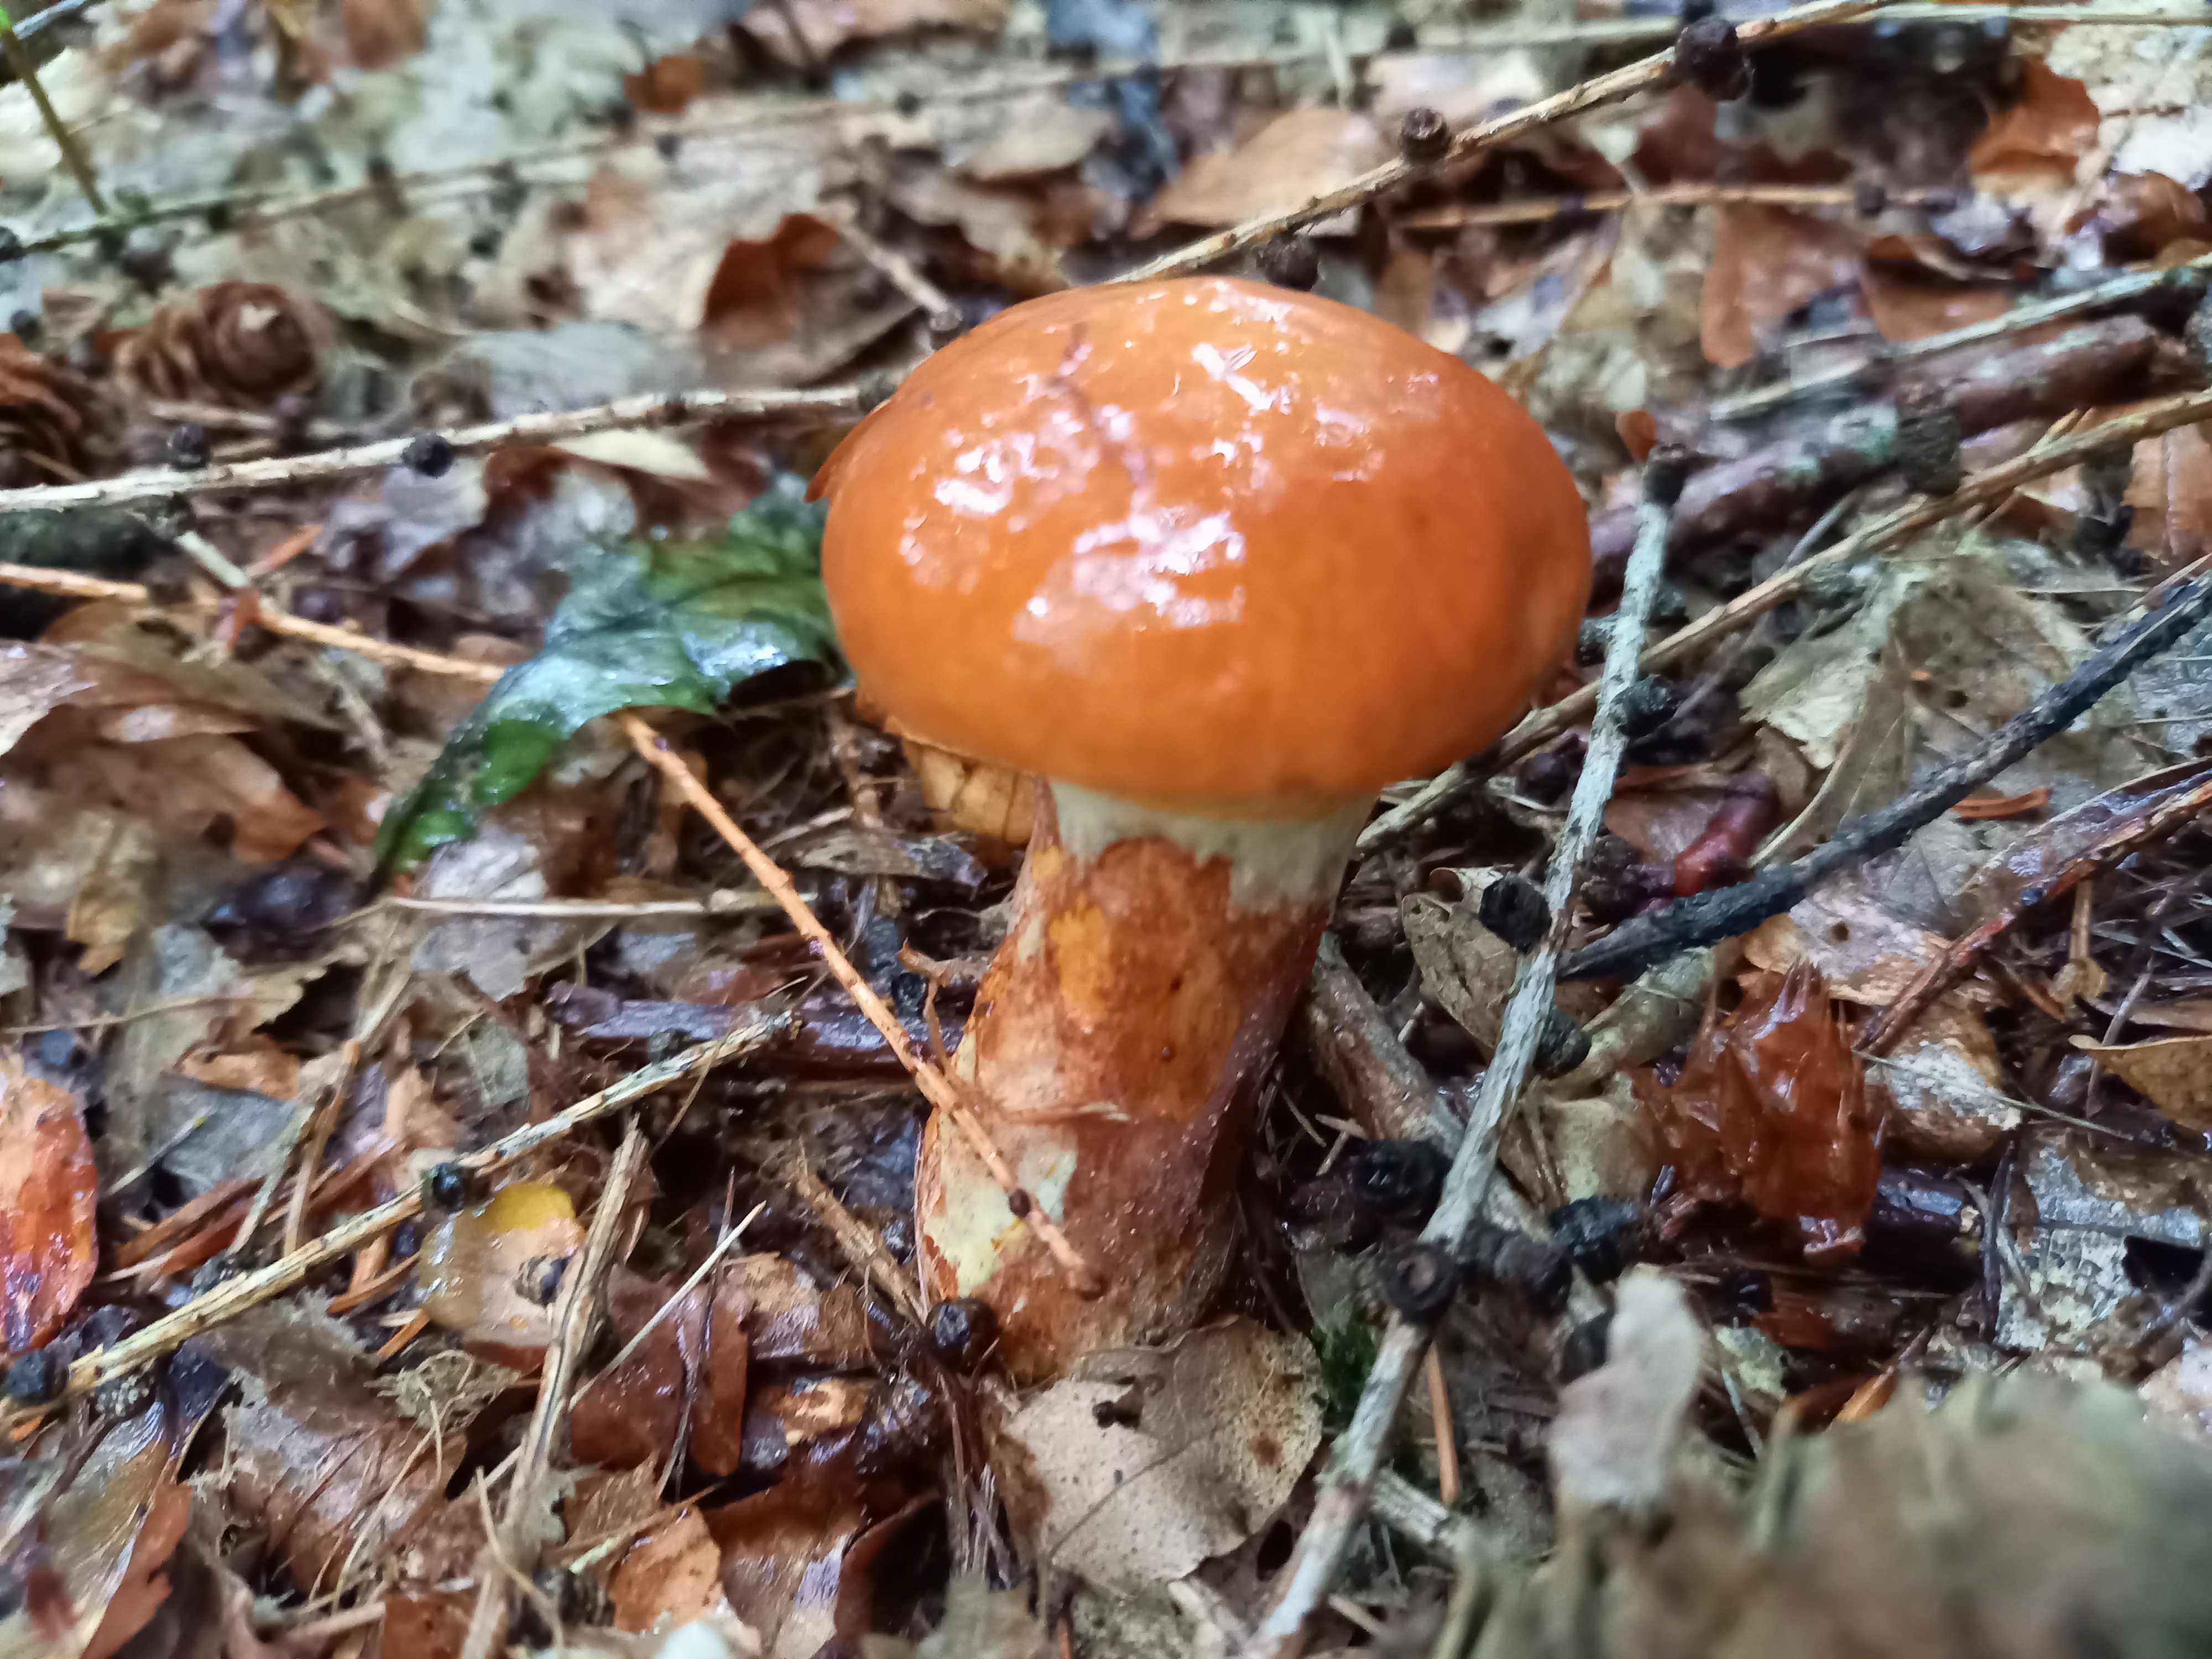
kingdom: Fungi
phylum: Basidiomycota
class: Agaricomycetes
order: Boletales
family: Suillaceae
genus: Suillus
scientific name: Suillus grevillei
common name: lærke-slimrørhat
